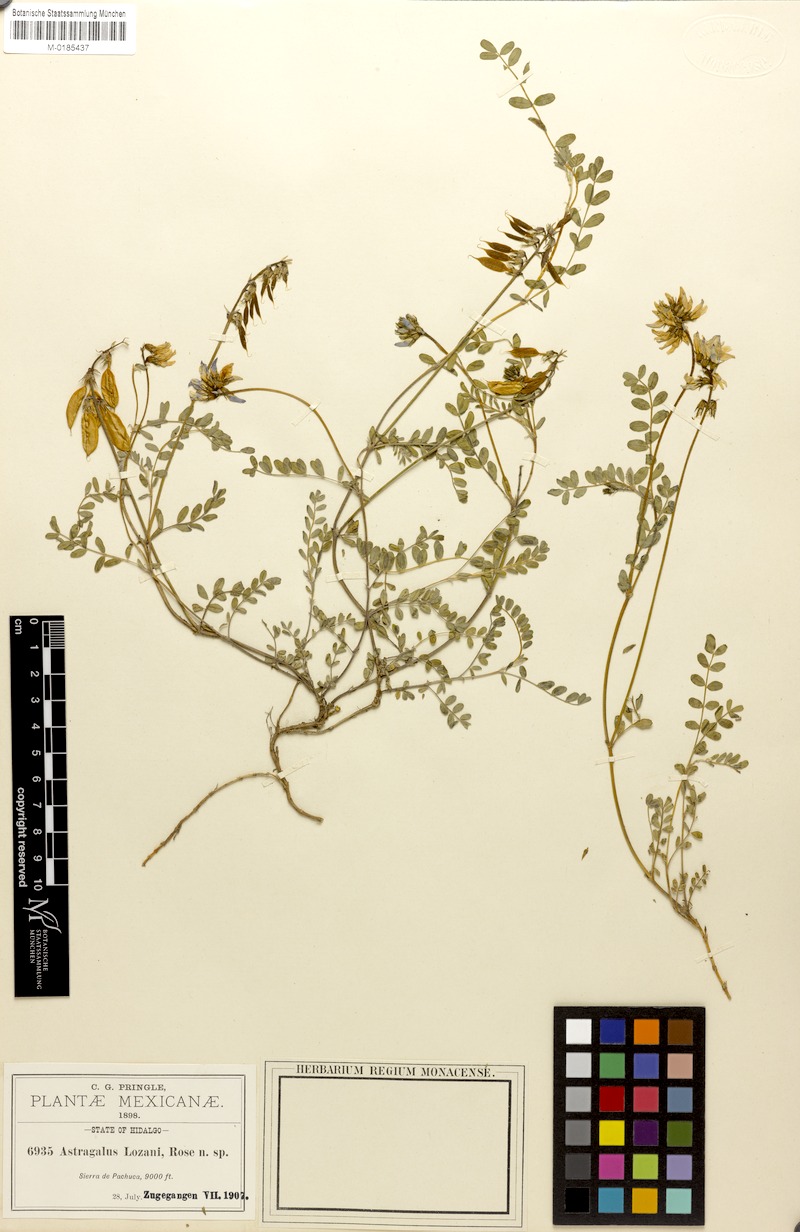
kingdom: Plantae
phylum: Tracheophyta
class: Magnoliopsida
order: Fabales
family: Fabaceae
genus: Astragalus
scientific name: Astragalus guatemalensis
